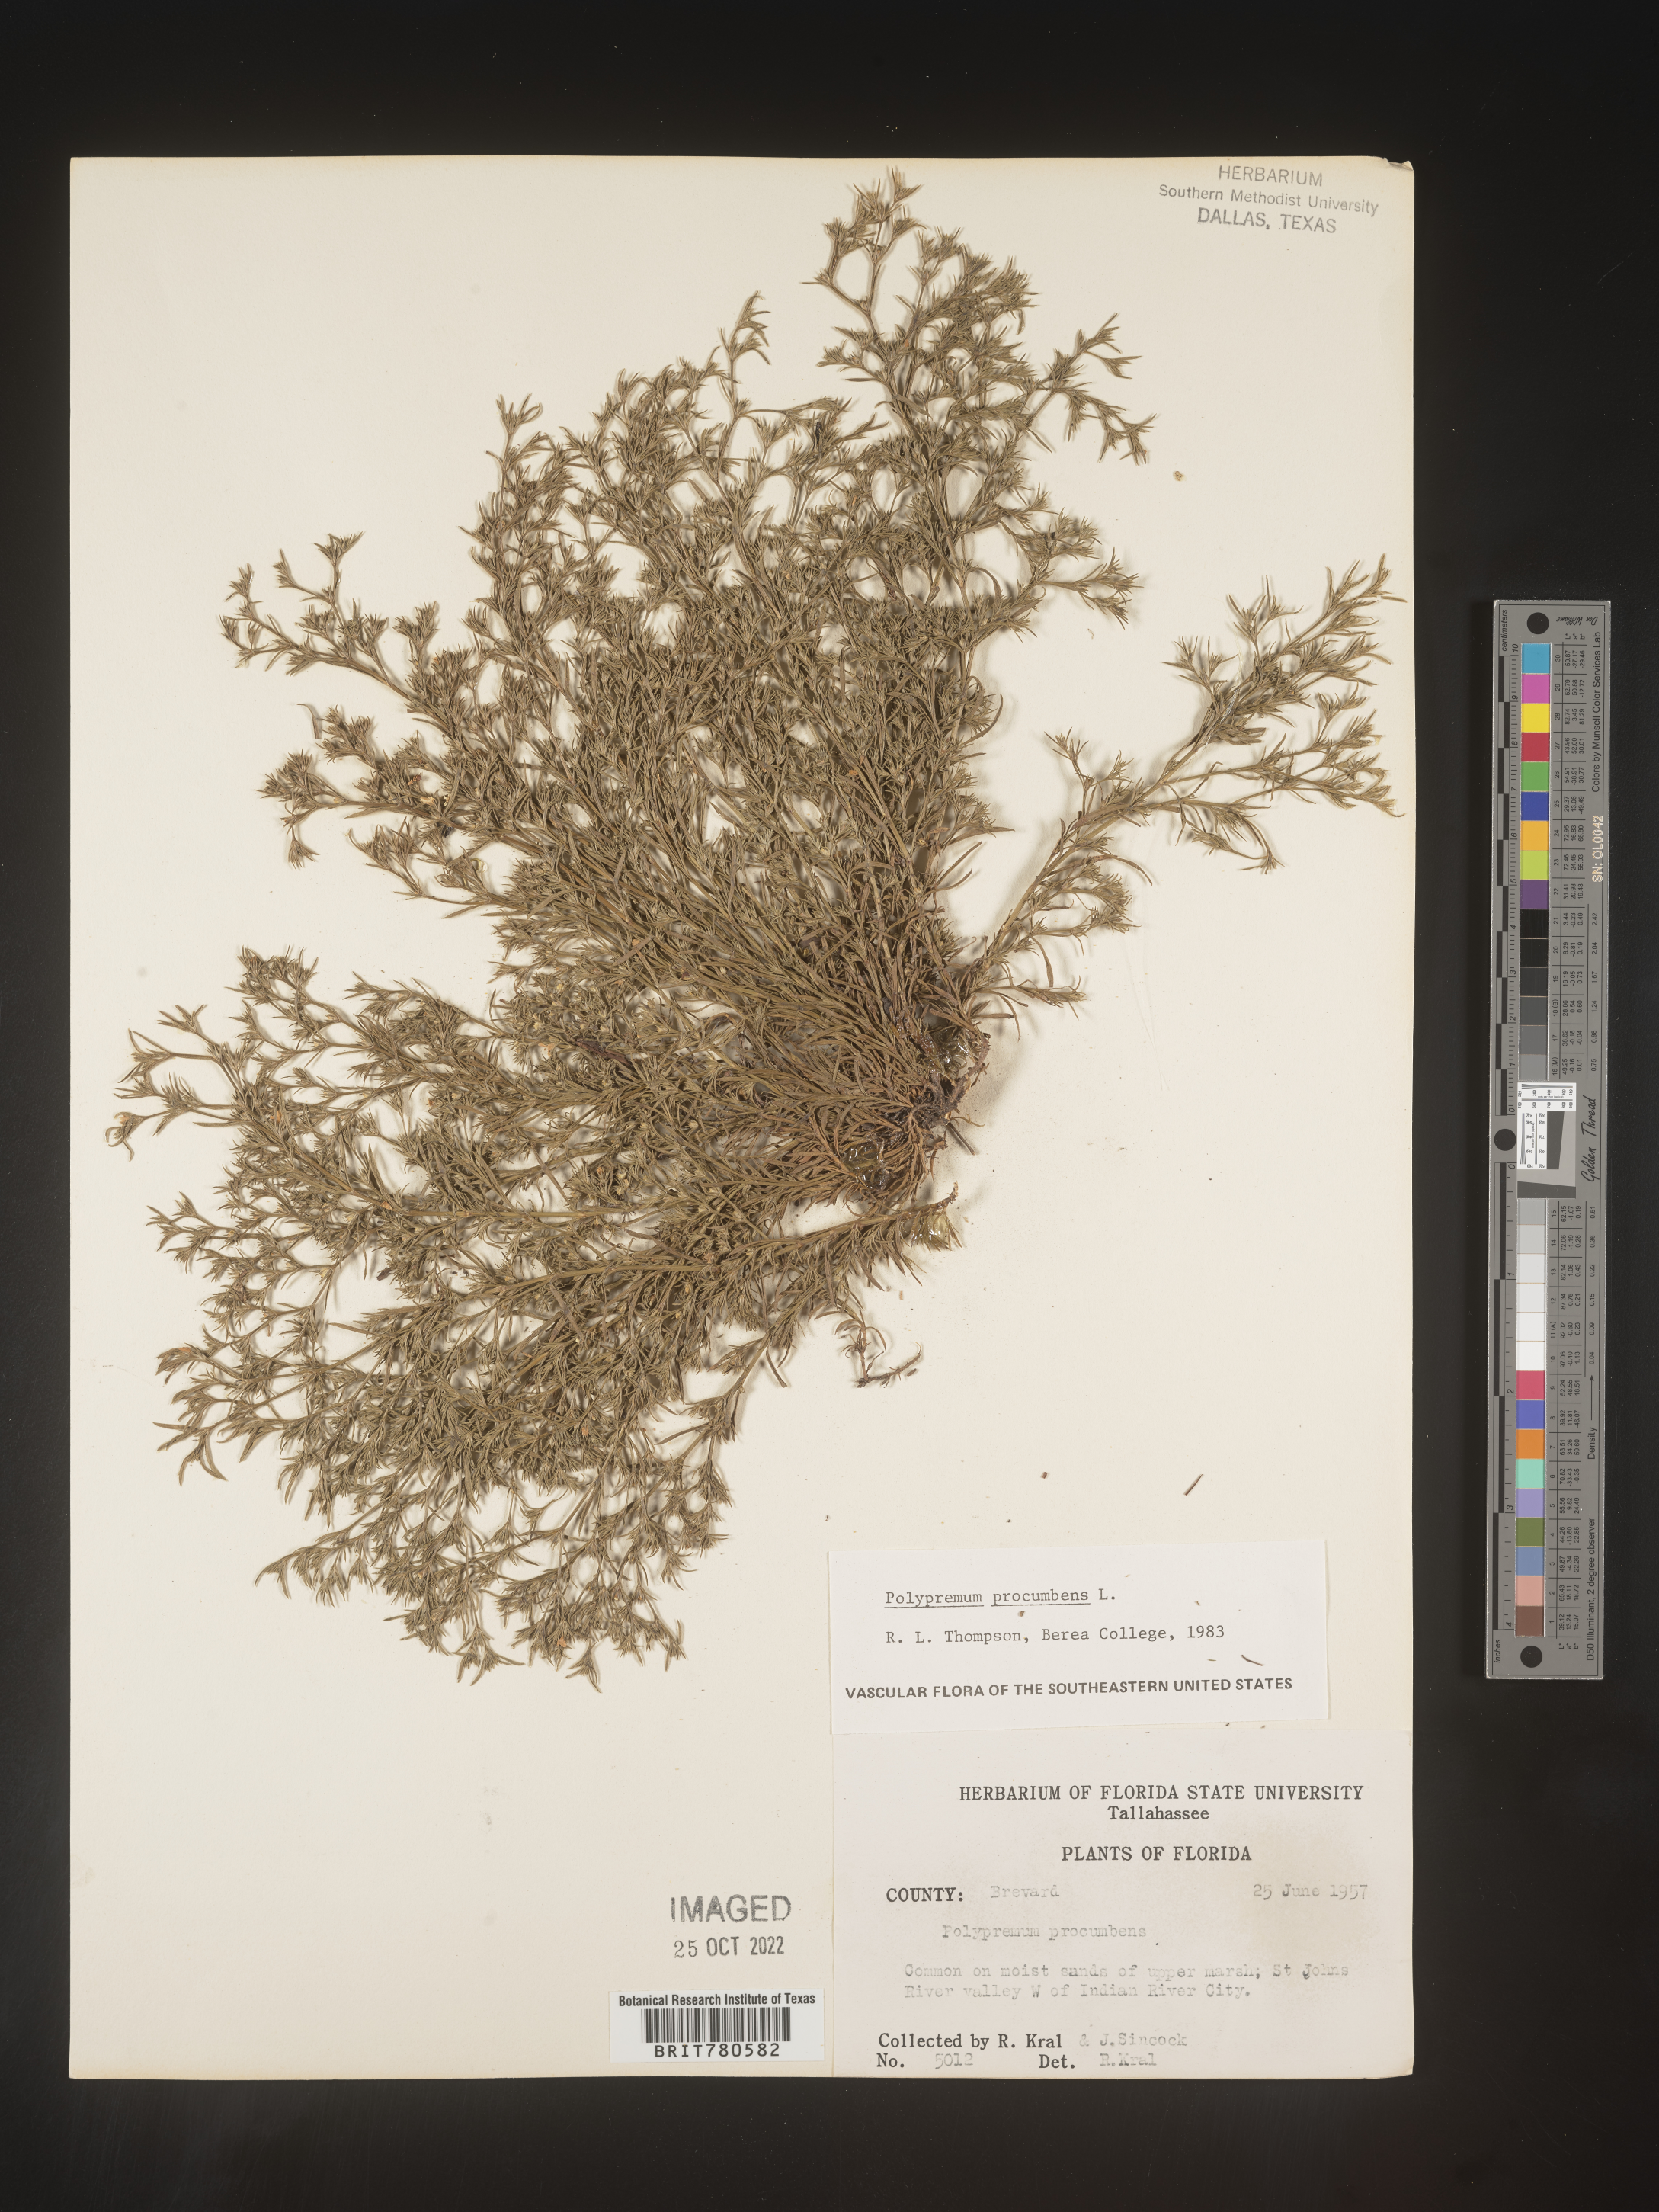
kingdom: Plantae
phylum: Tracheophyta
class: Magnoliopsida
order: Lamiales
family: Tetrachondraceae
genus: Polypremum
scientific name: Polypremum procumbens
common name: Juniper-leaf
